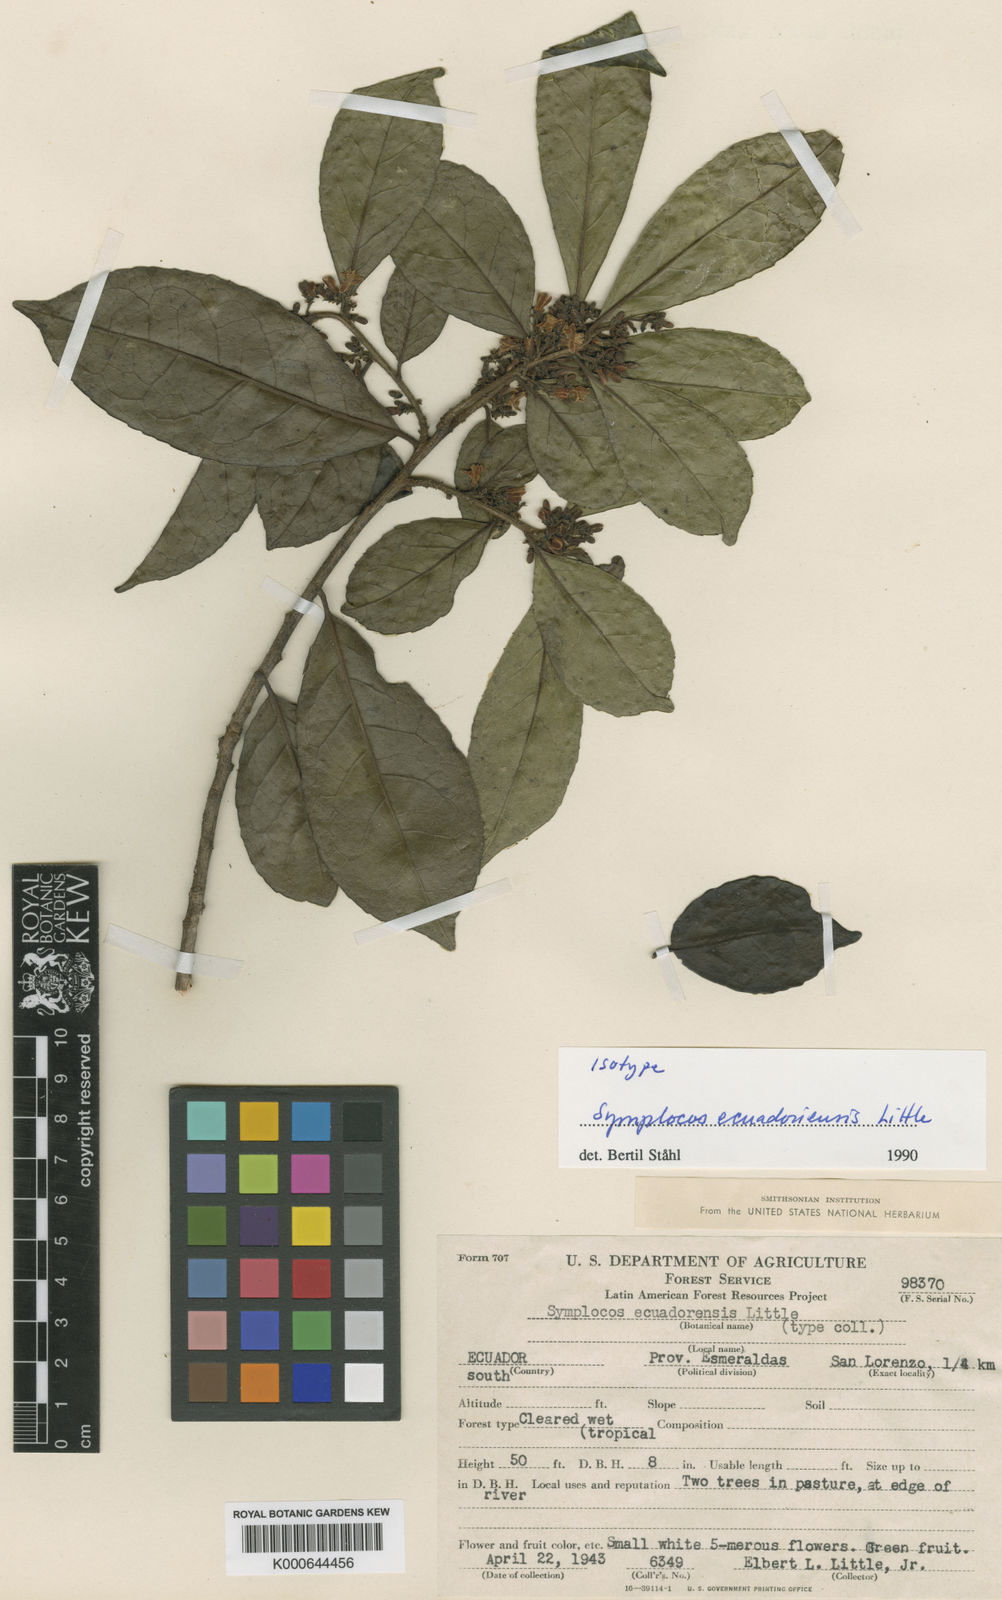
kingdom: Plantae
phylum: Tracheophyta
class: Magnoliopsida
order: Ericales
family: Symplocaceae
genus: Symplocos
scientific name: Symplocos ecuadorensis
